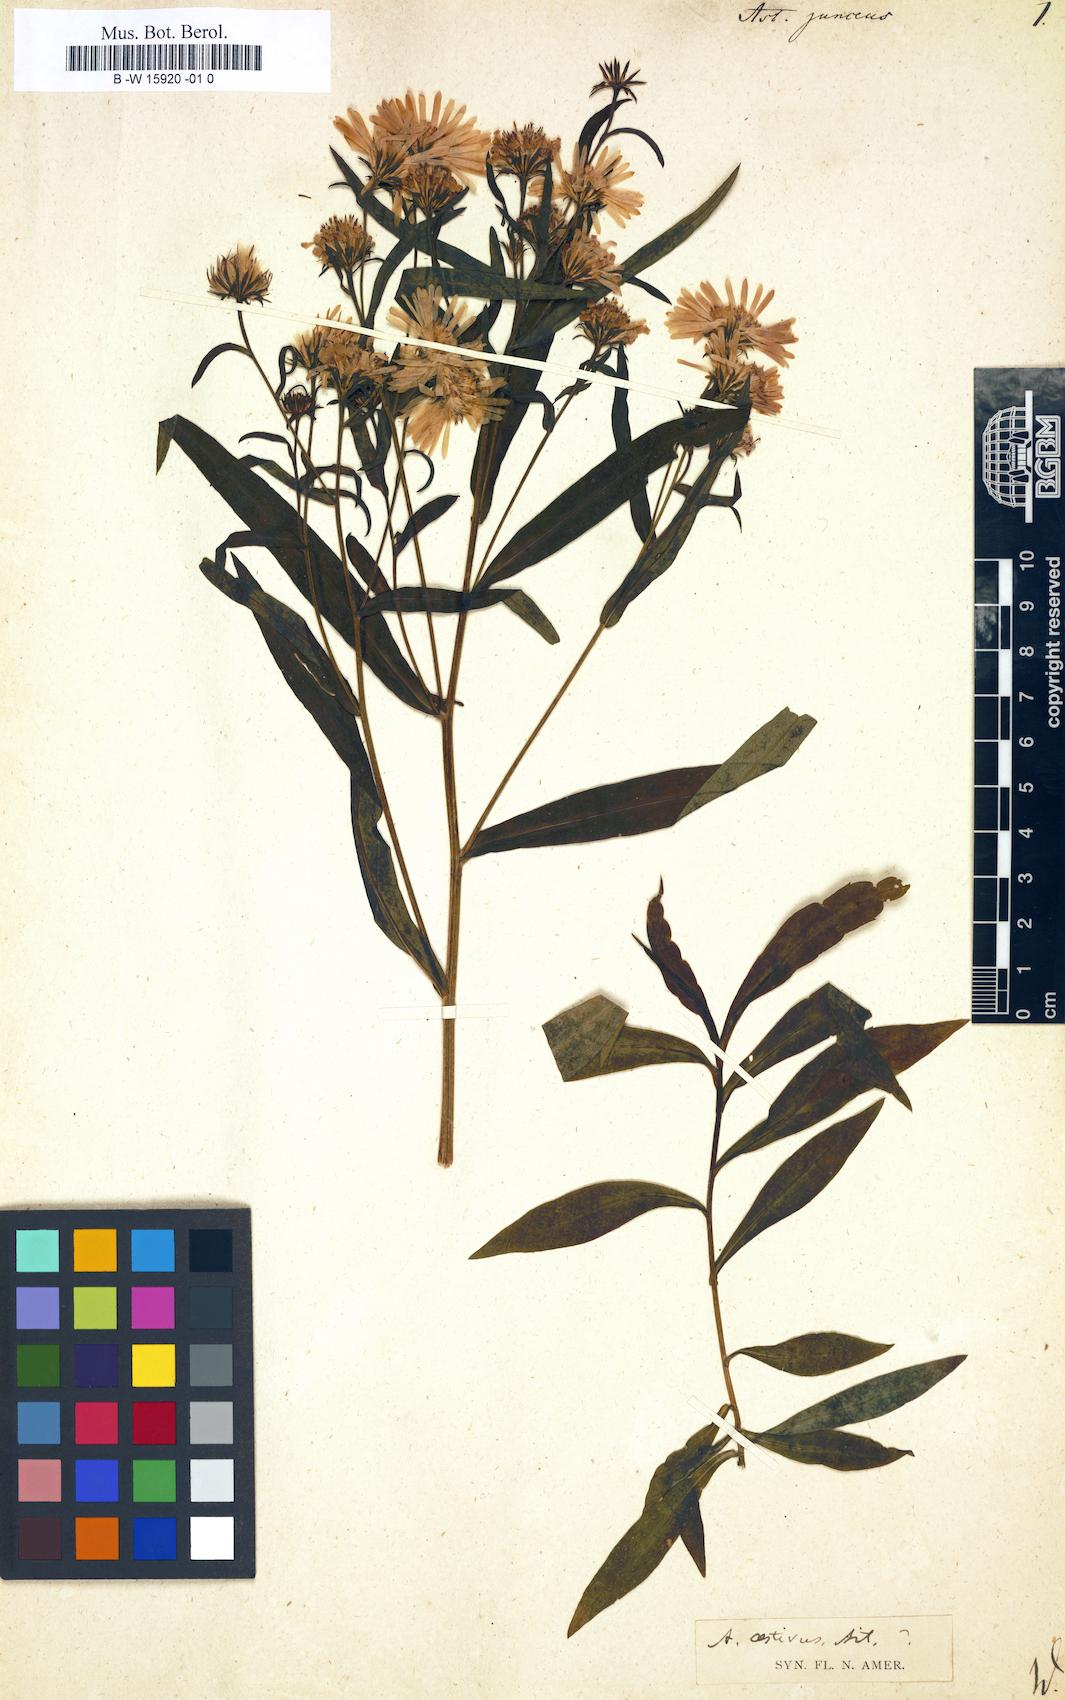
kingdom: Plantae
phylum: Tracheophyta
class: Magnoliopsida
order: Asterales
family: Asteraceae
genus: Symphyotrichum
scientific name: Symphyotrichum
